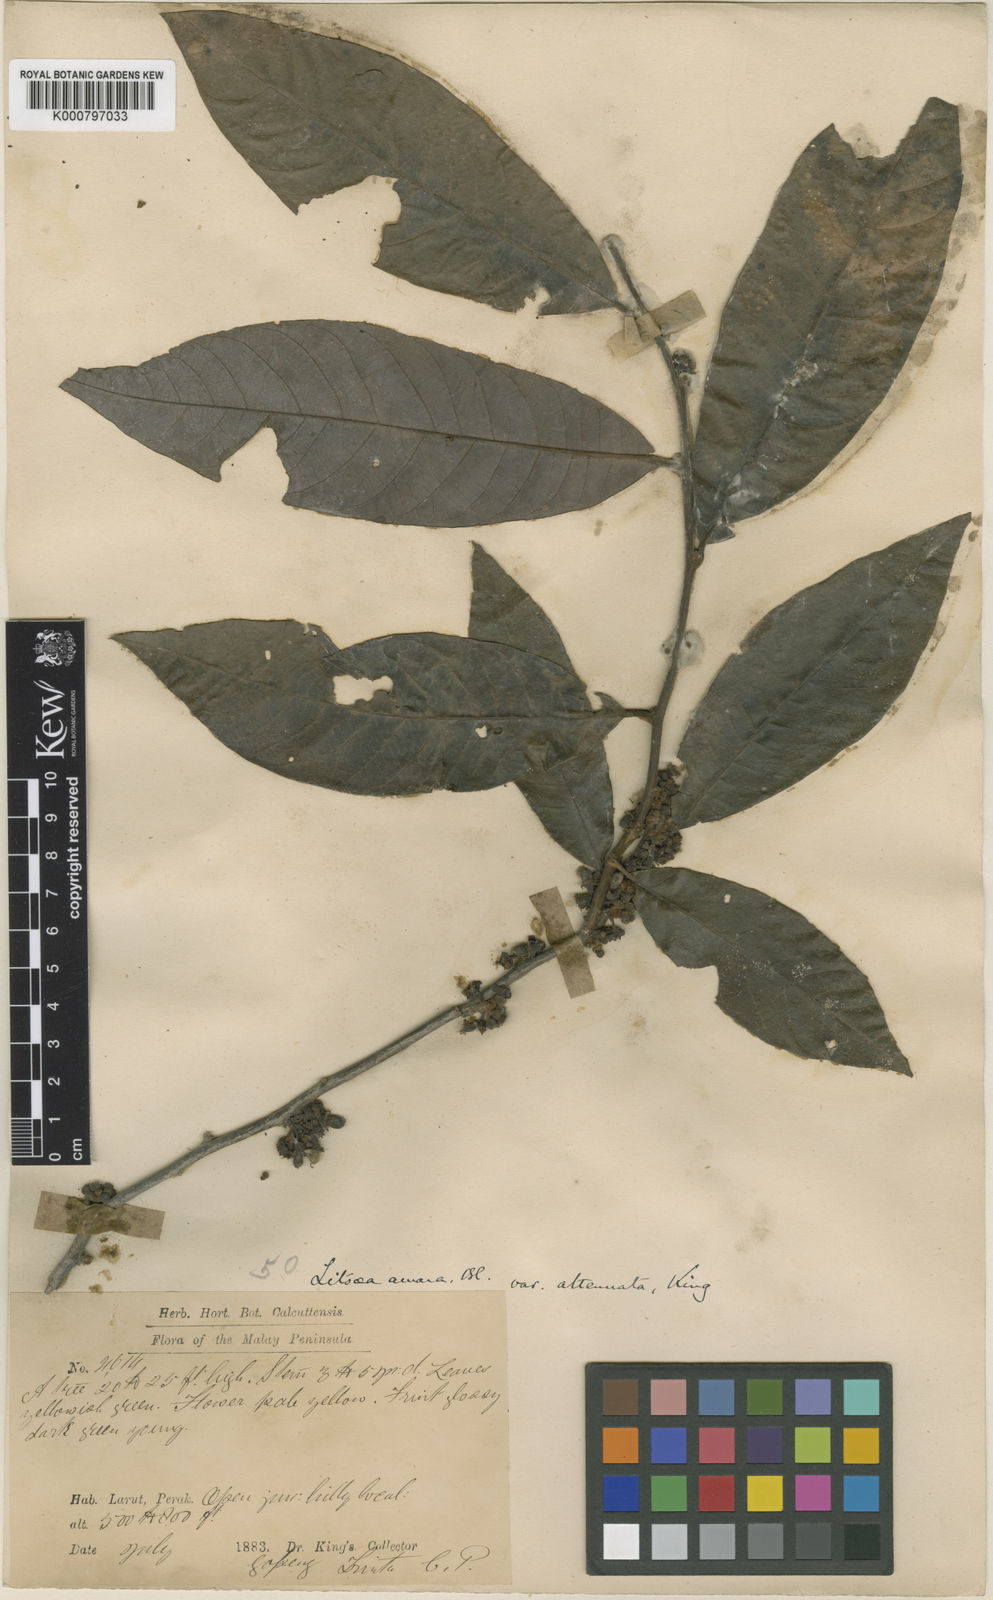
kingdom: Plantae
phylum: Tracheophyta
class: Magnoliopsida
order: Laurales
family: Lauraceae
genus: Litsea
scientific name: Litsea umbellata
